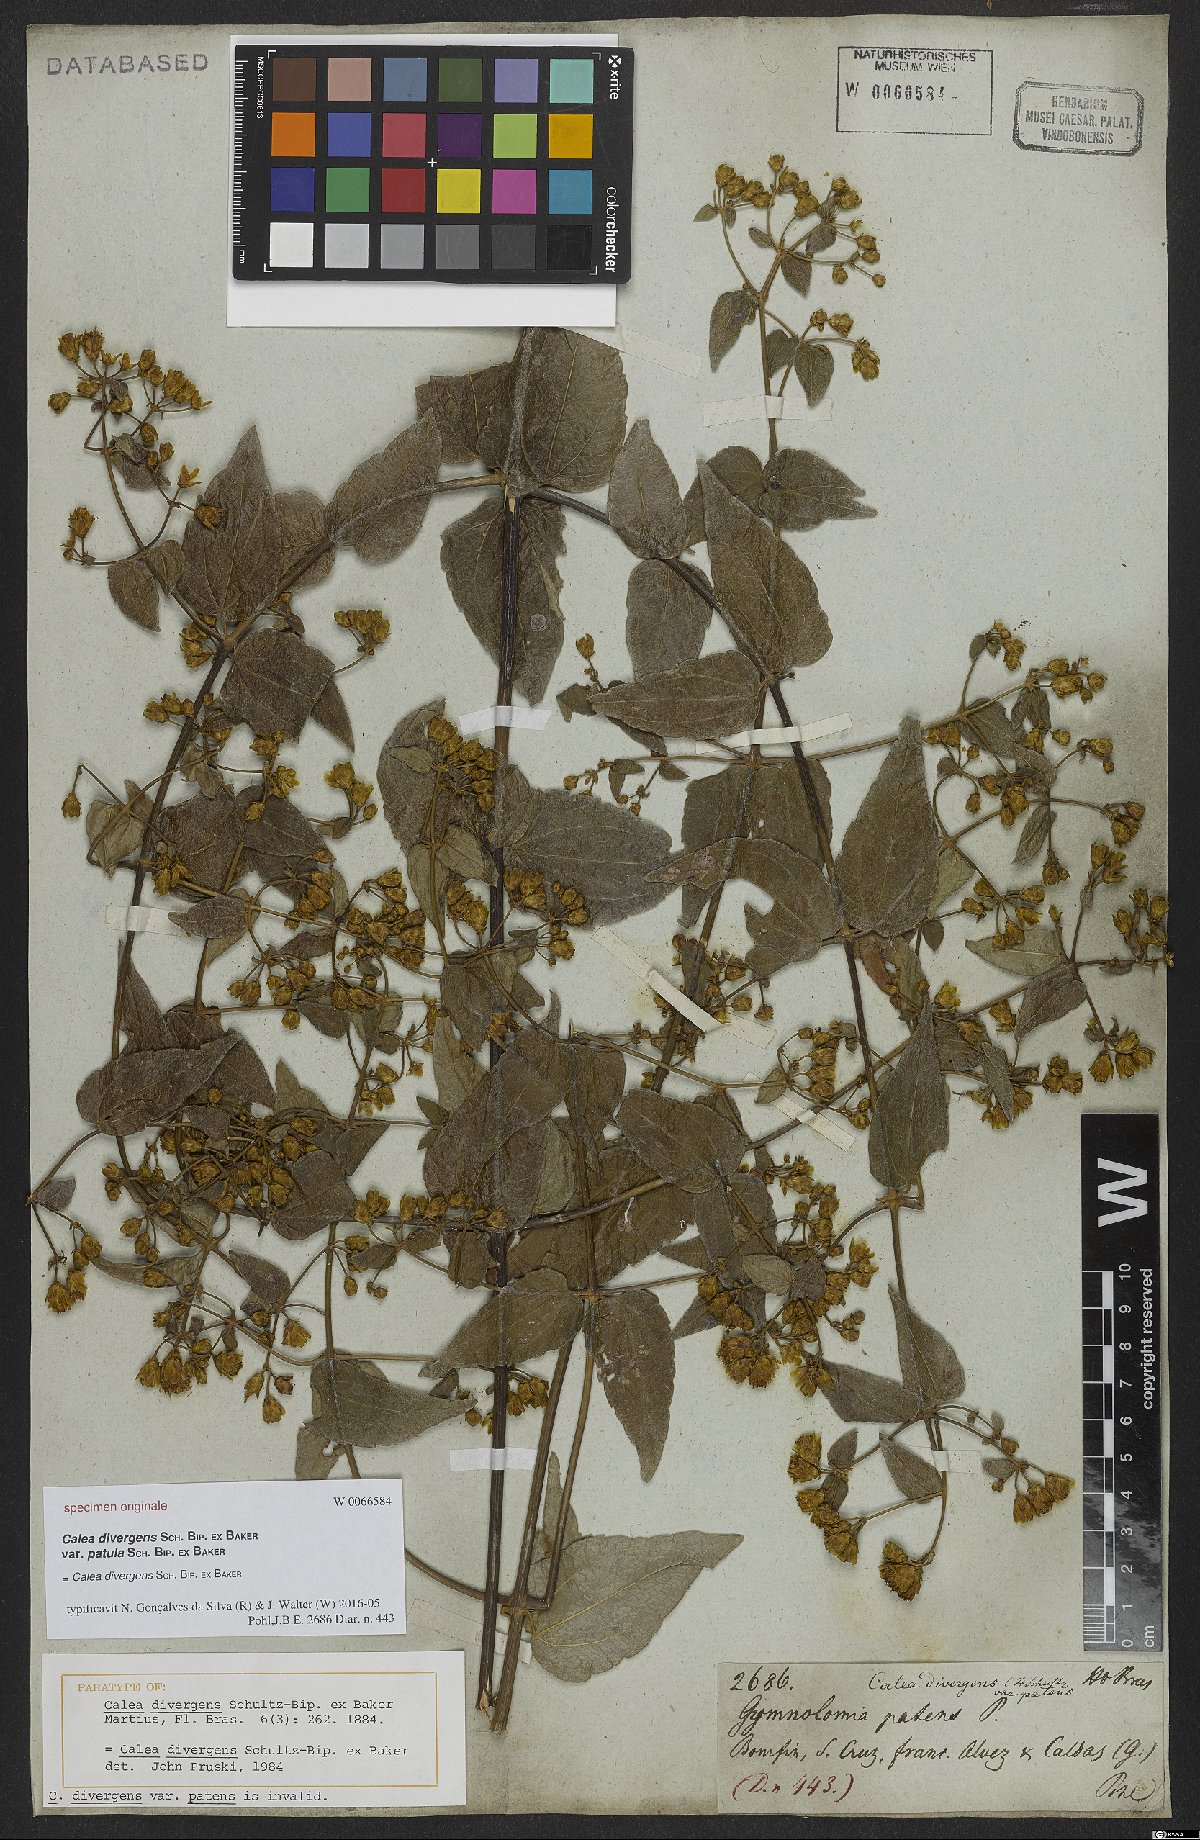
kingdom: Plantae
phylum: Tracheophyta
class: Magnoliopsida
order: Asterales
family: Asteraceae
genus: Calea
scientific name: Calea divergens
